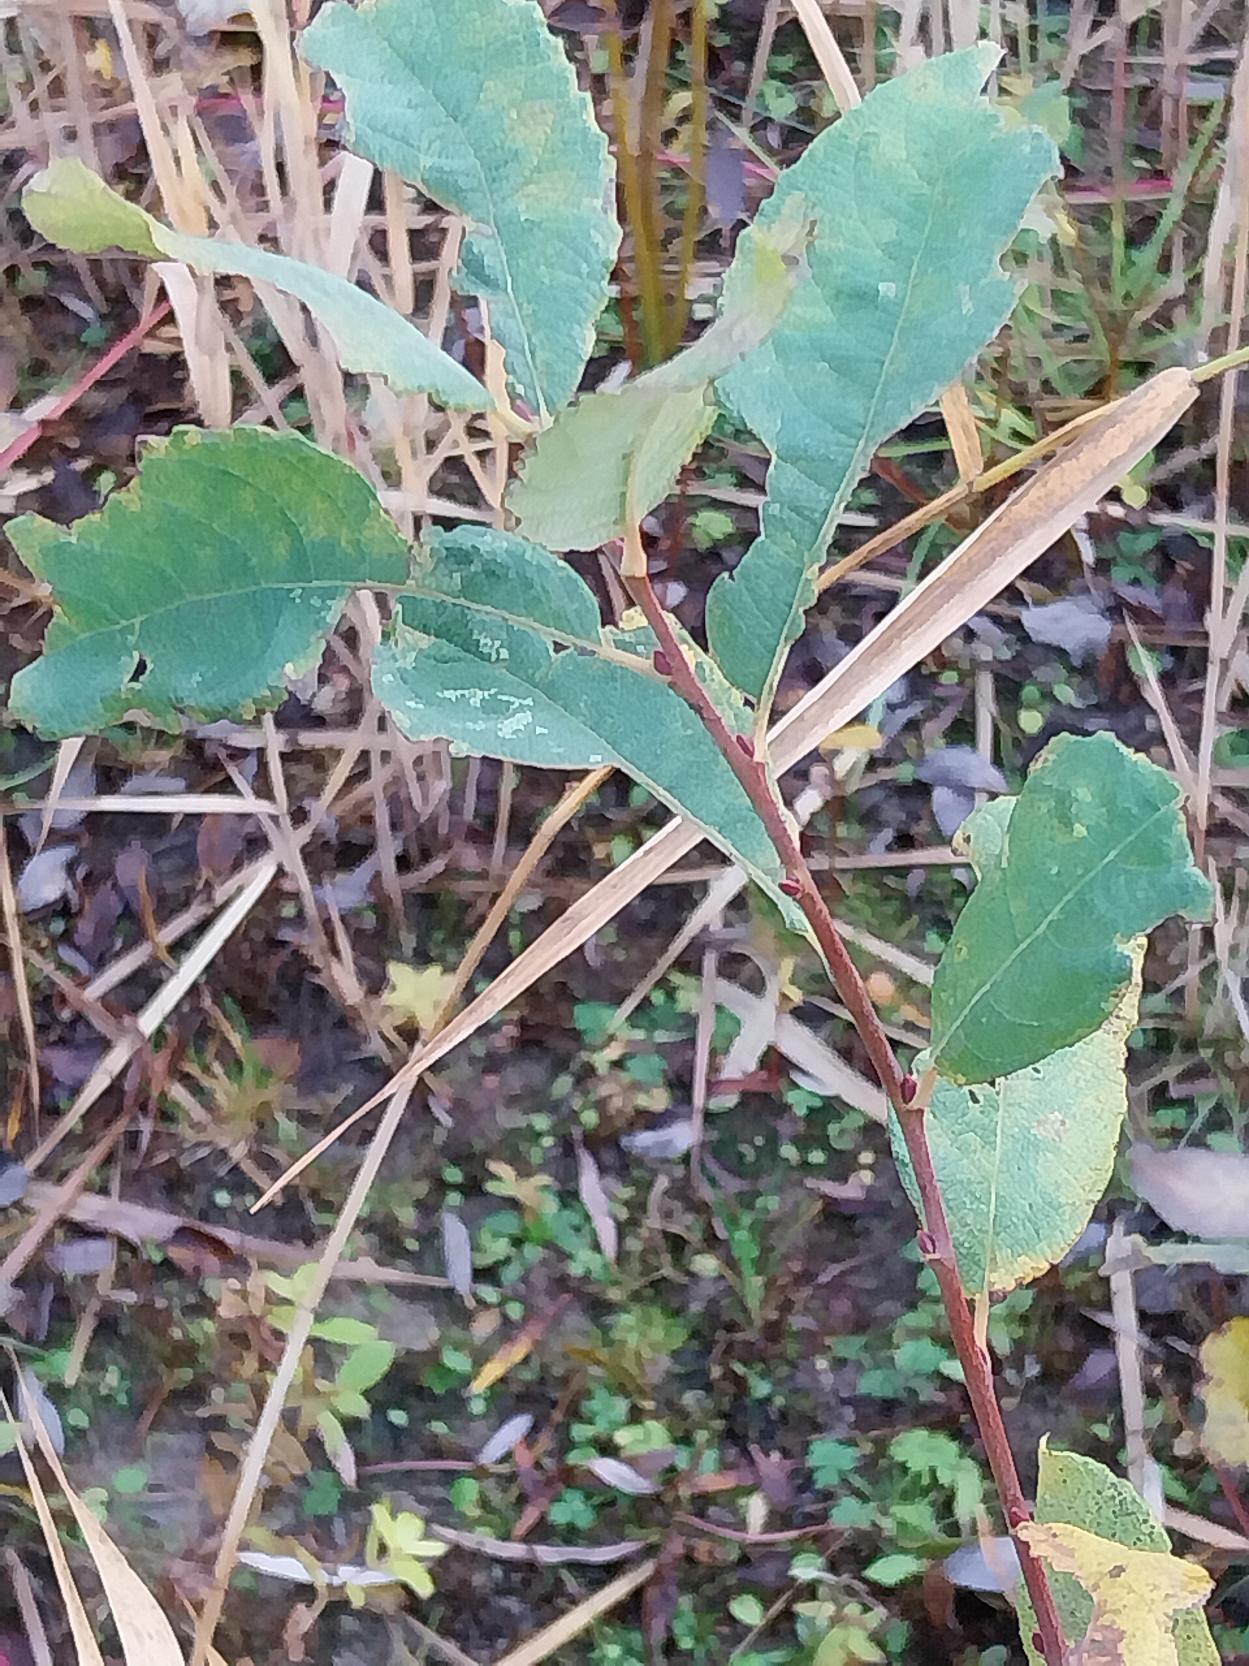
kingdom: Plantae
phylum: Tracheophyta
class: Magnoliopsida
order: Malpighiales
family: Salicaceae
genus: Salix
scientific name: Salix cinerea
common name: Grå-pil
